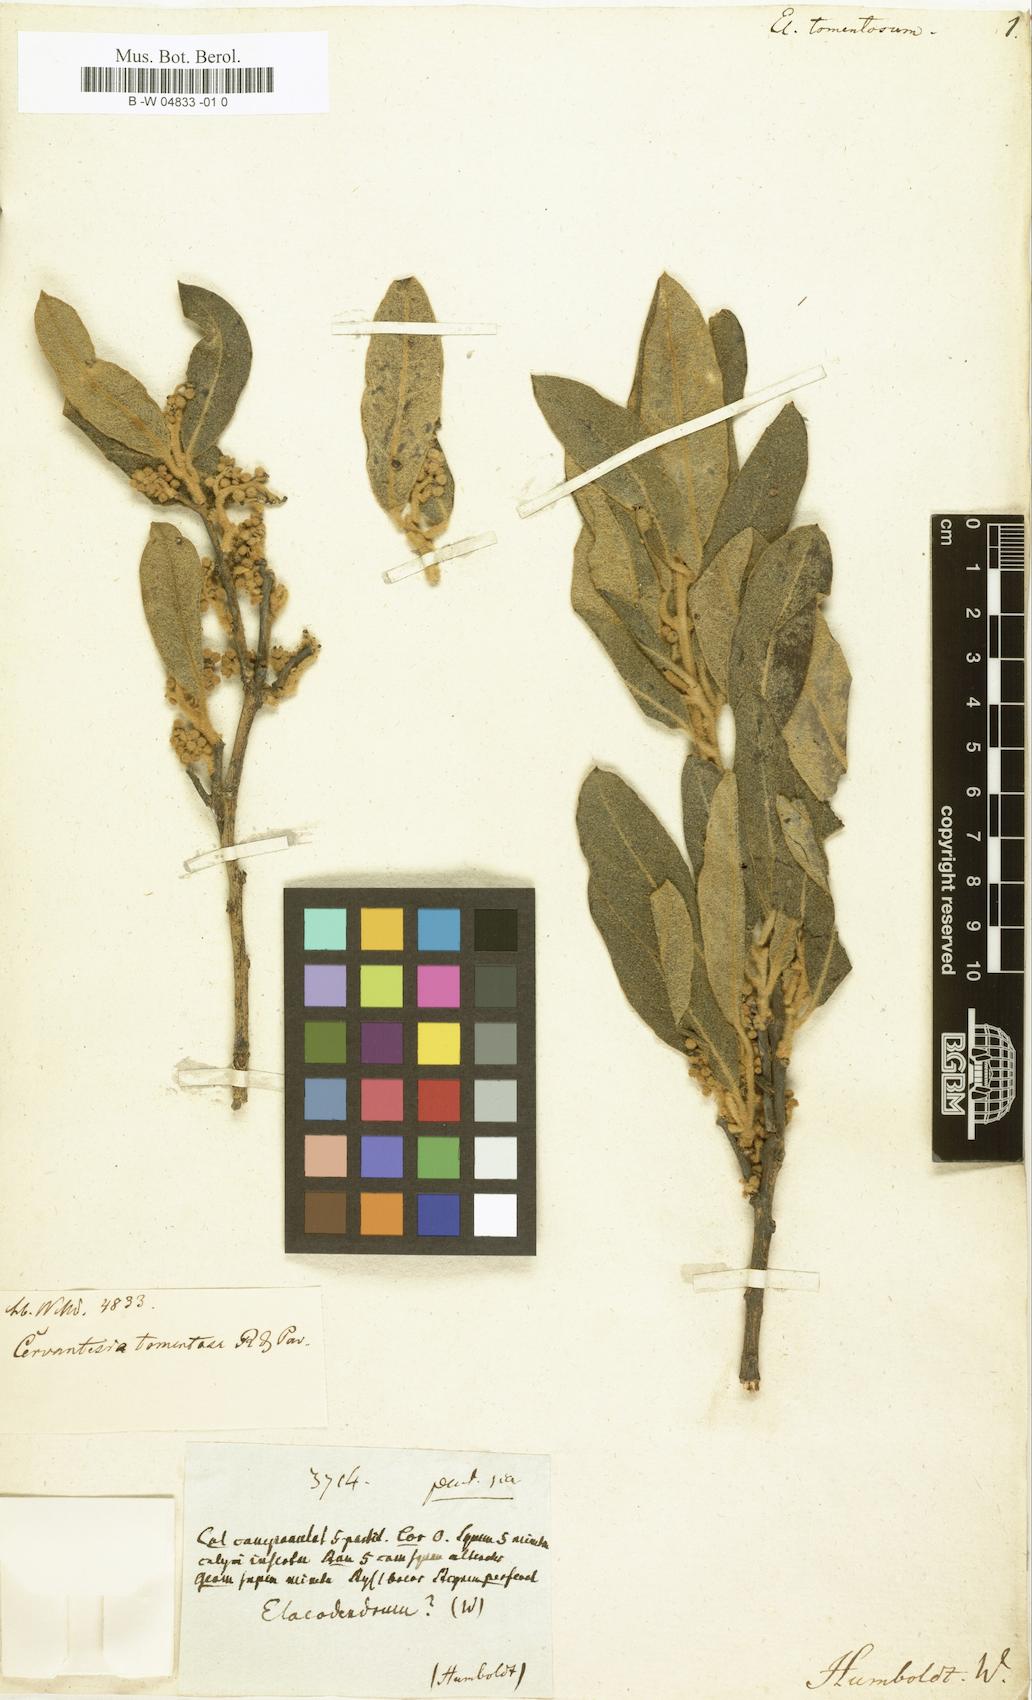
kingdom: Plantae
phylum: Tracheophyta
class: Magnoliopsida
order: Santalales
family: Cervantesiaceae
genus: Cervantesia
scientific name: Cervantesia tomentosa
